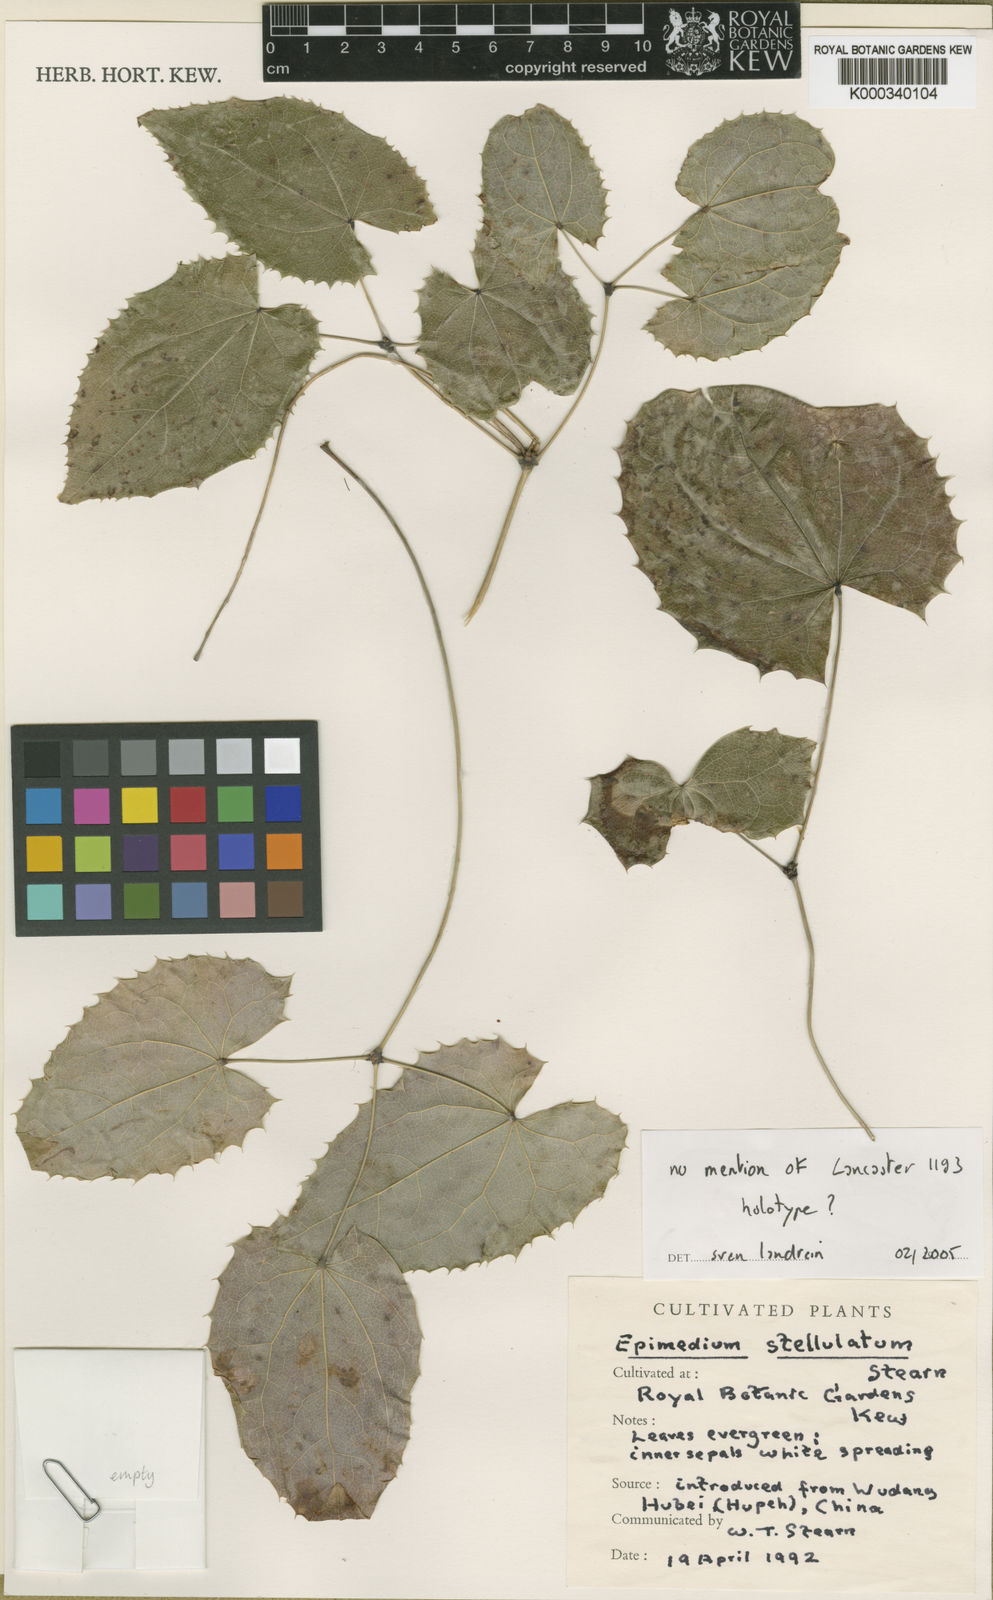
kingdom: Plantae
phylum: Tracheophyta
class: Magnoliopsida
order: Ranunculales
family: Berberidaceae
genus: Epimedium
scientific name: Epimedium stellulatum
